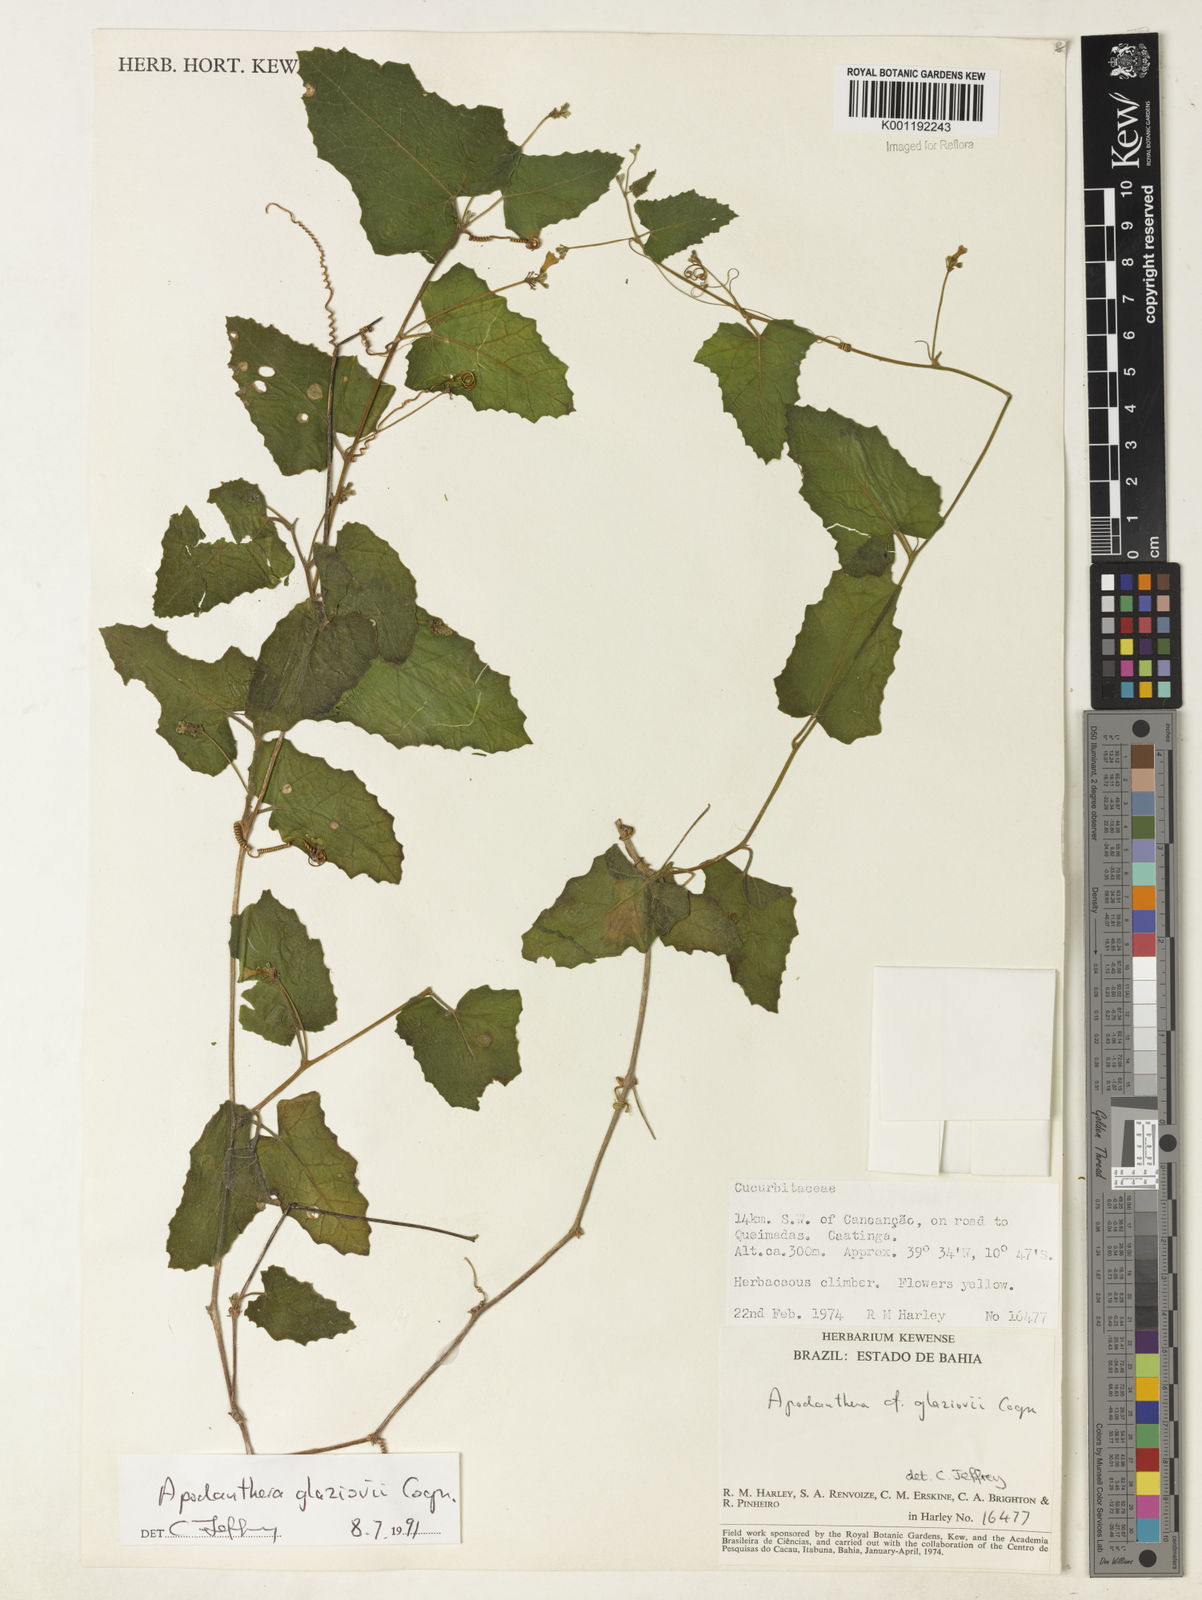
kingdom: Plantae
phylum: Tracheophyta
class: Magnoliopsida
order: Cucurbitales
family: Cucurbitaceae
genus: Apodanthera
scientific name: Apodanthera glaziovii
